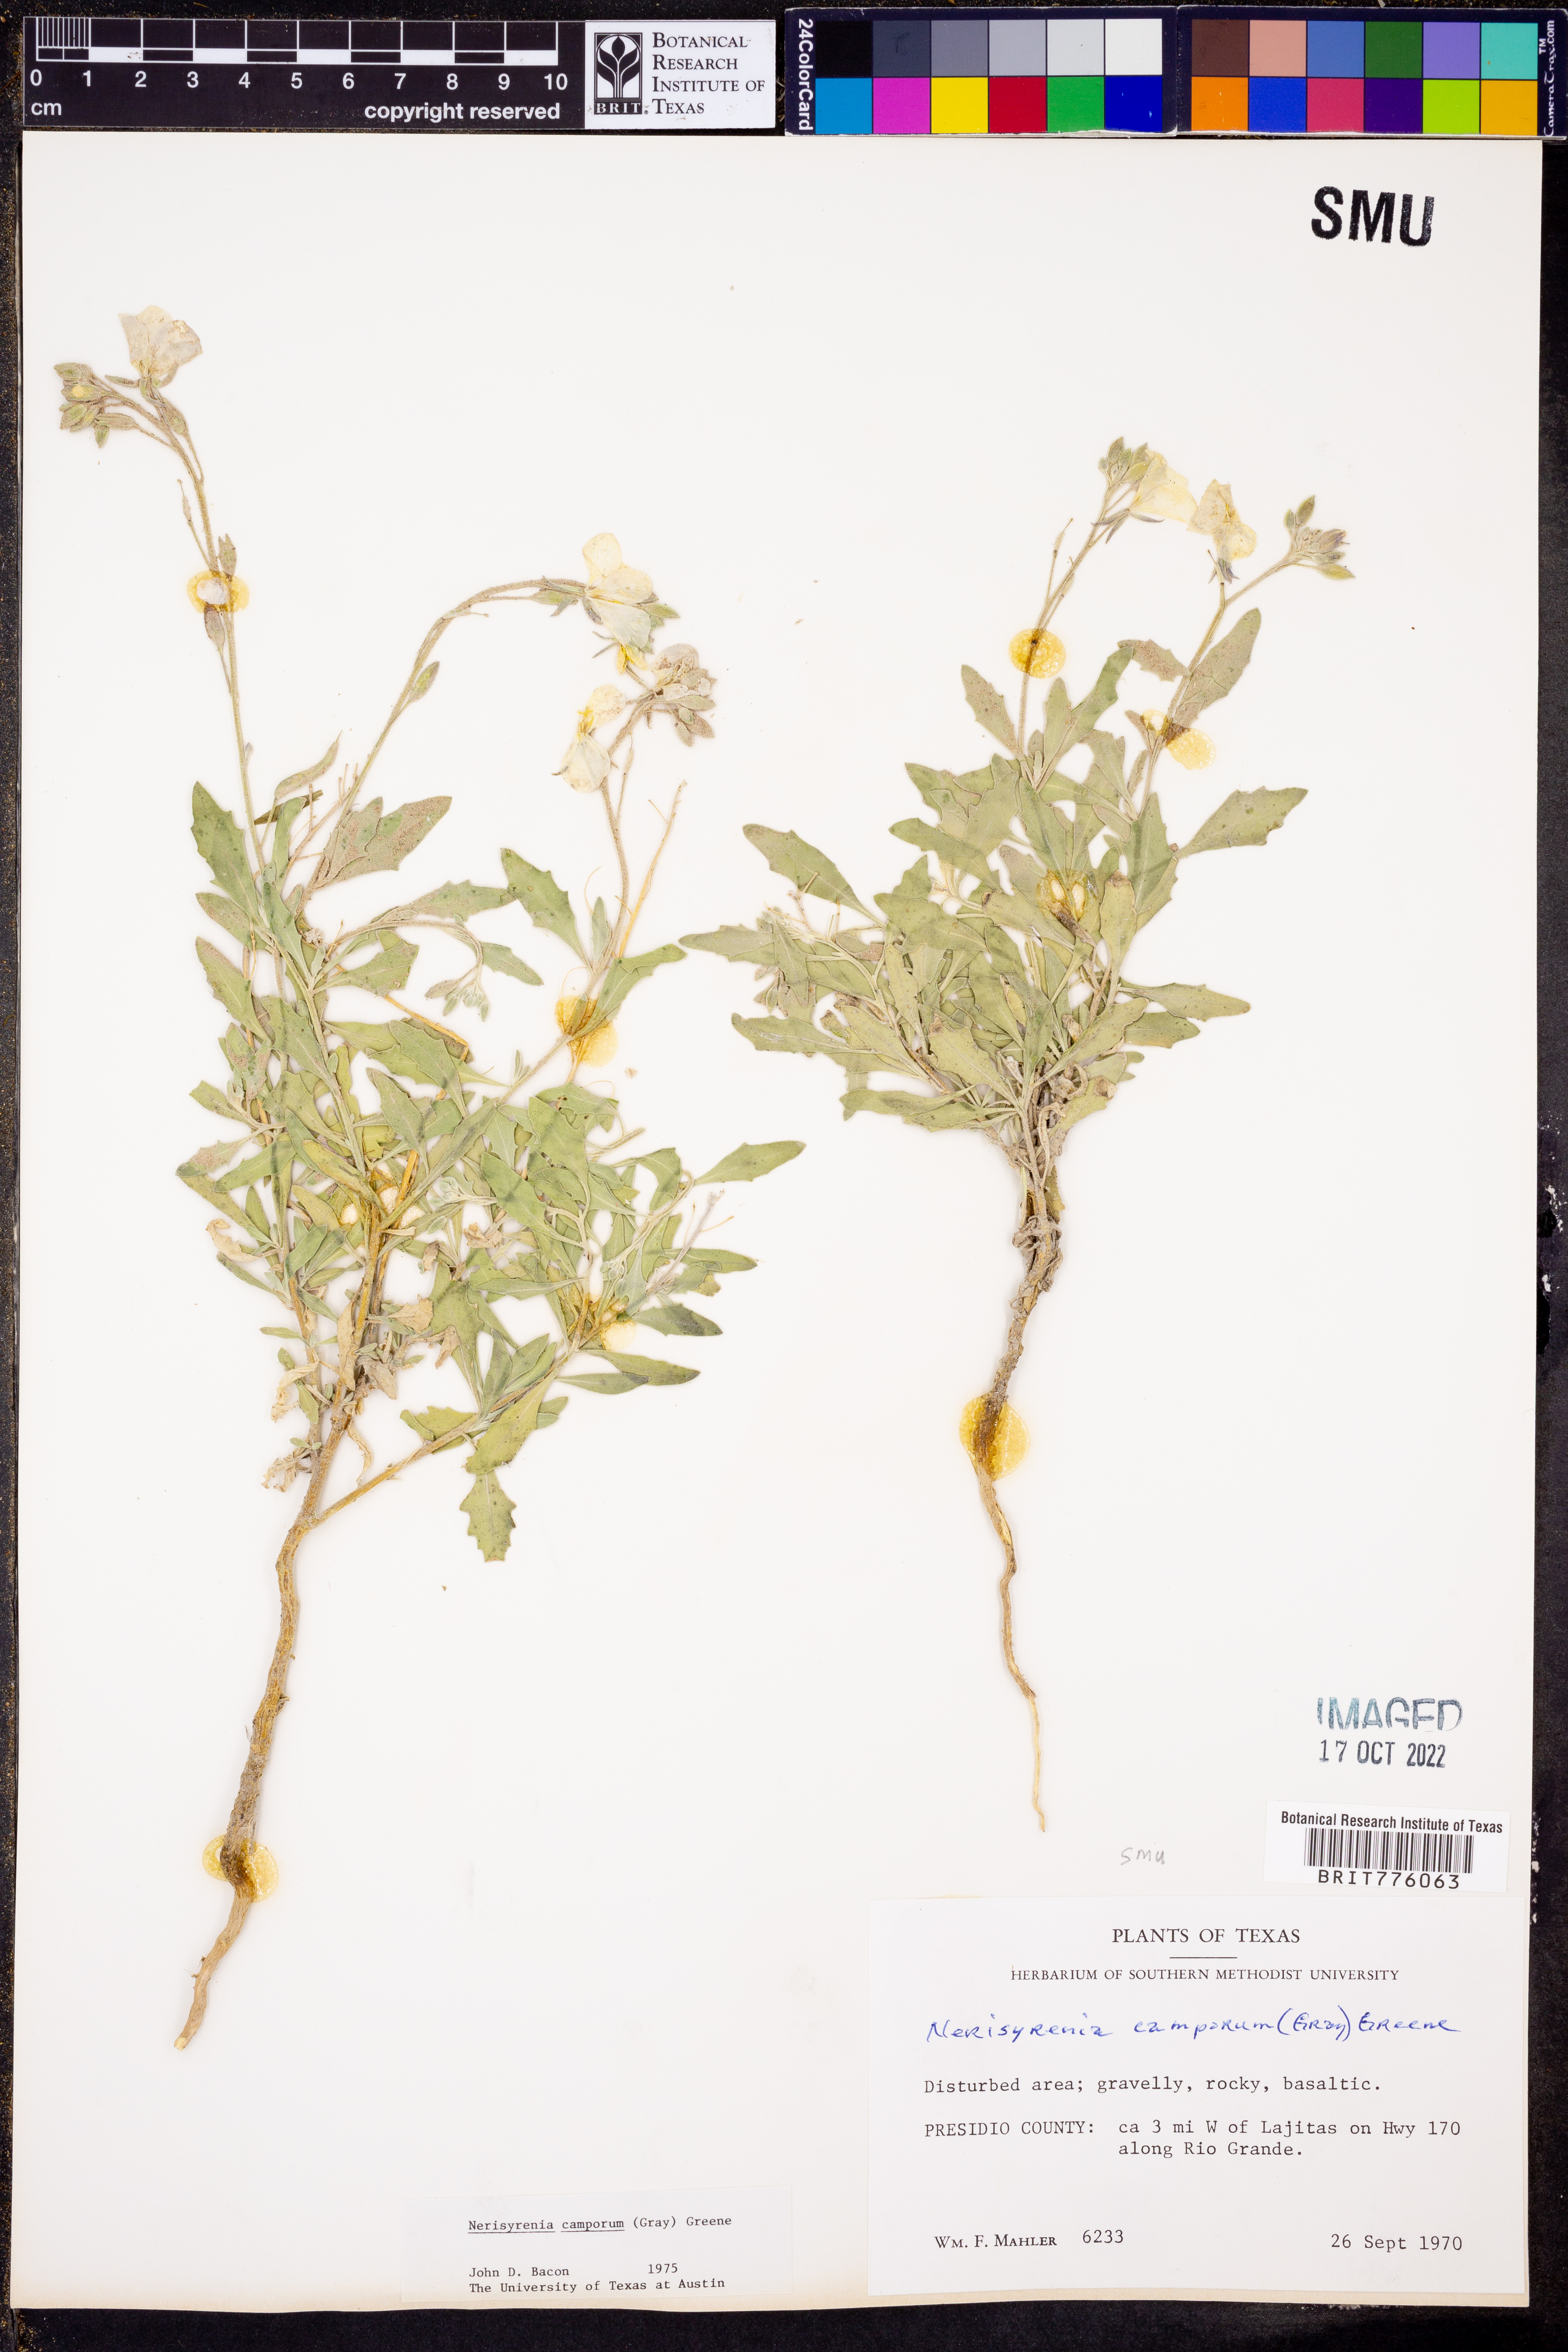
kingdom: Plantae
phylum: Tracheophyta
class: Magnoliopsida
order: Brassicales
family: Brassicaceae
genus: Nerisyrenia
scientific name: Nerisyrenia camporum
